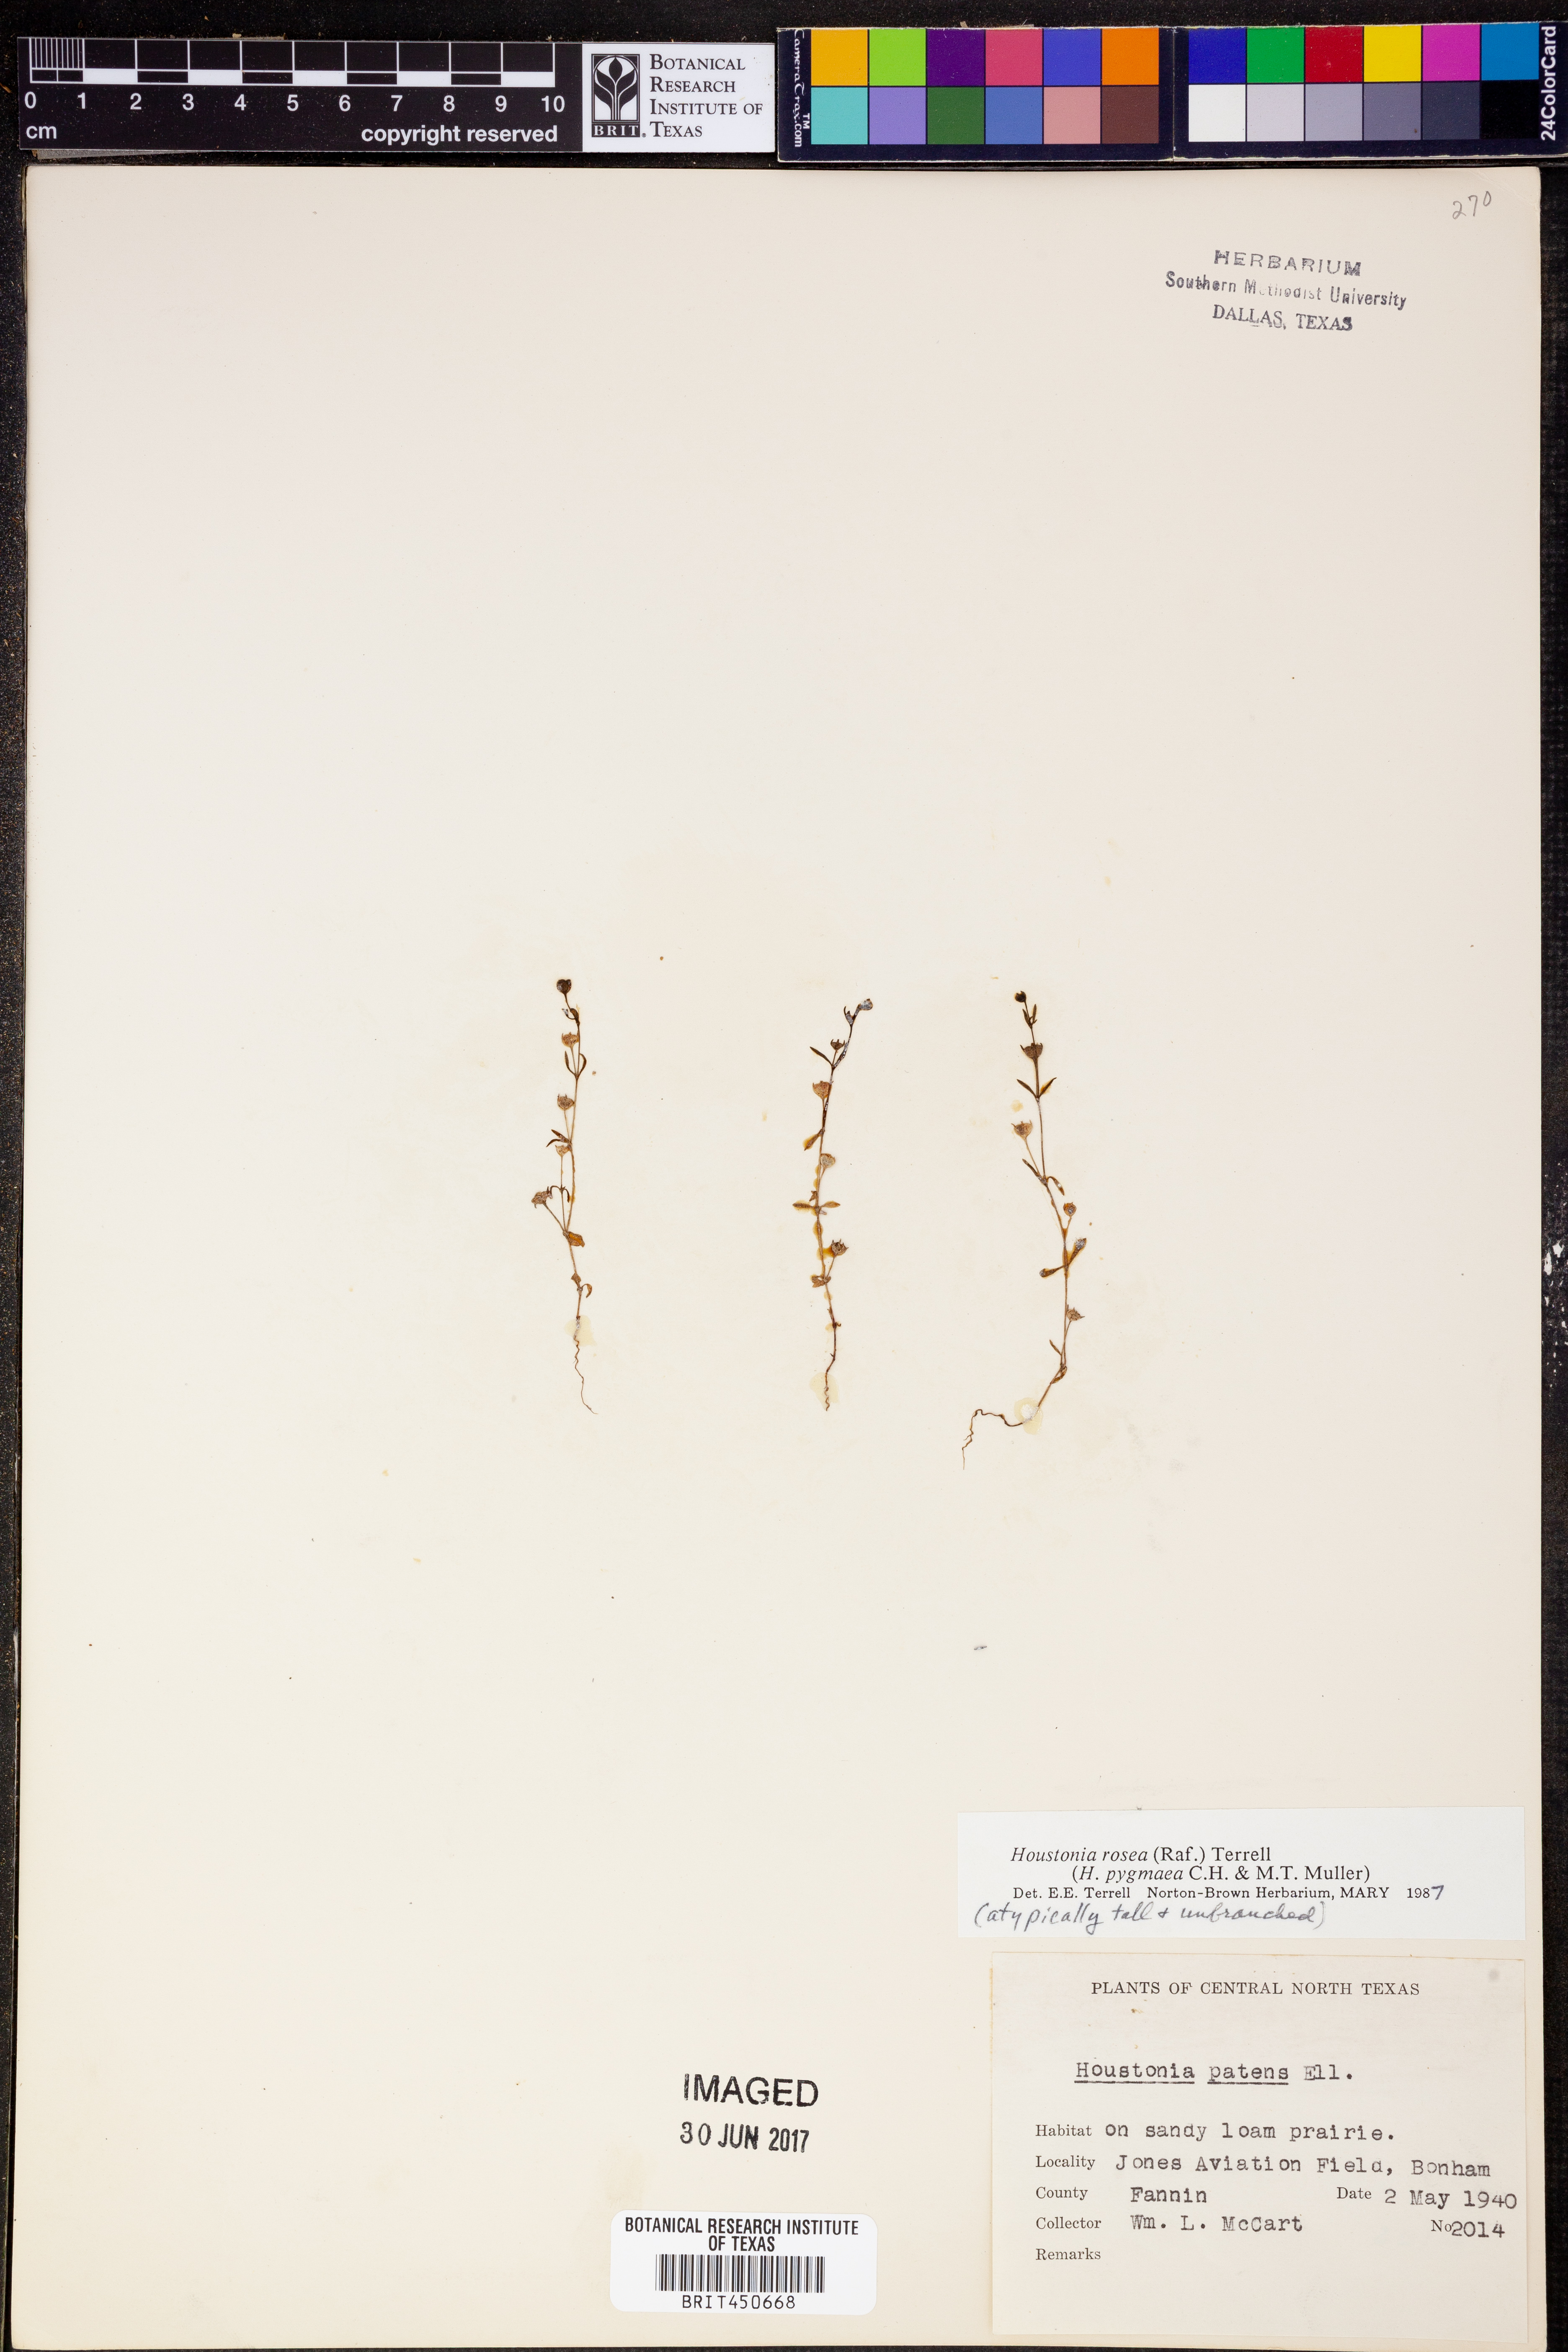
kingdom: Plantae
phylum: Tracheophyta
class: Magnoliopsida
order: Gentianales
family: Rubiaceae
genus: Houstonia
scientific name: Houstonia rosea
